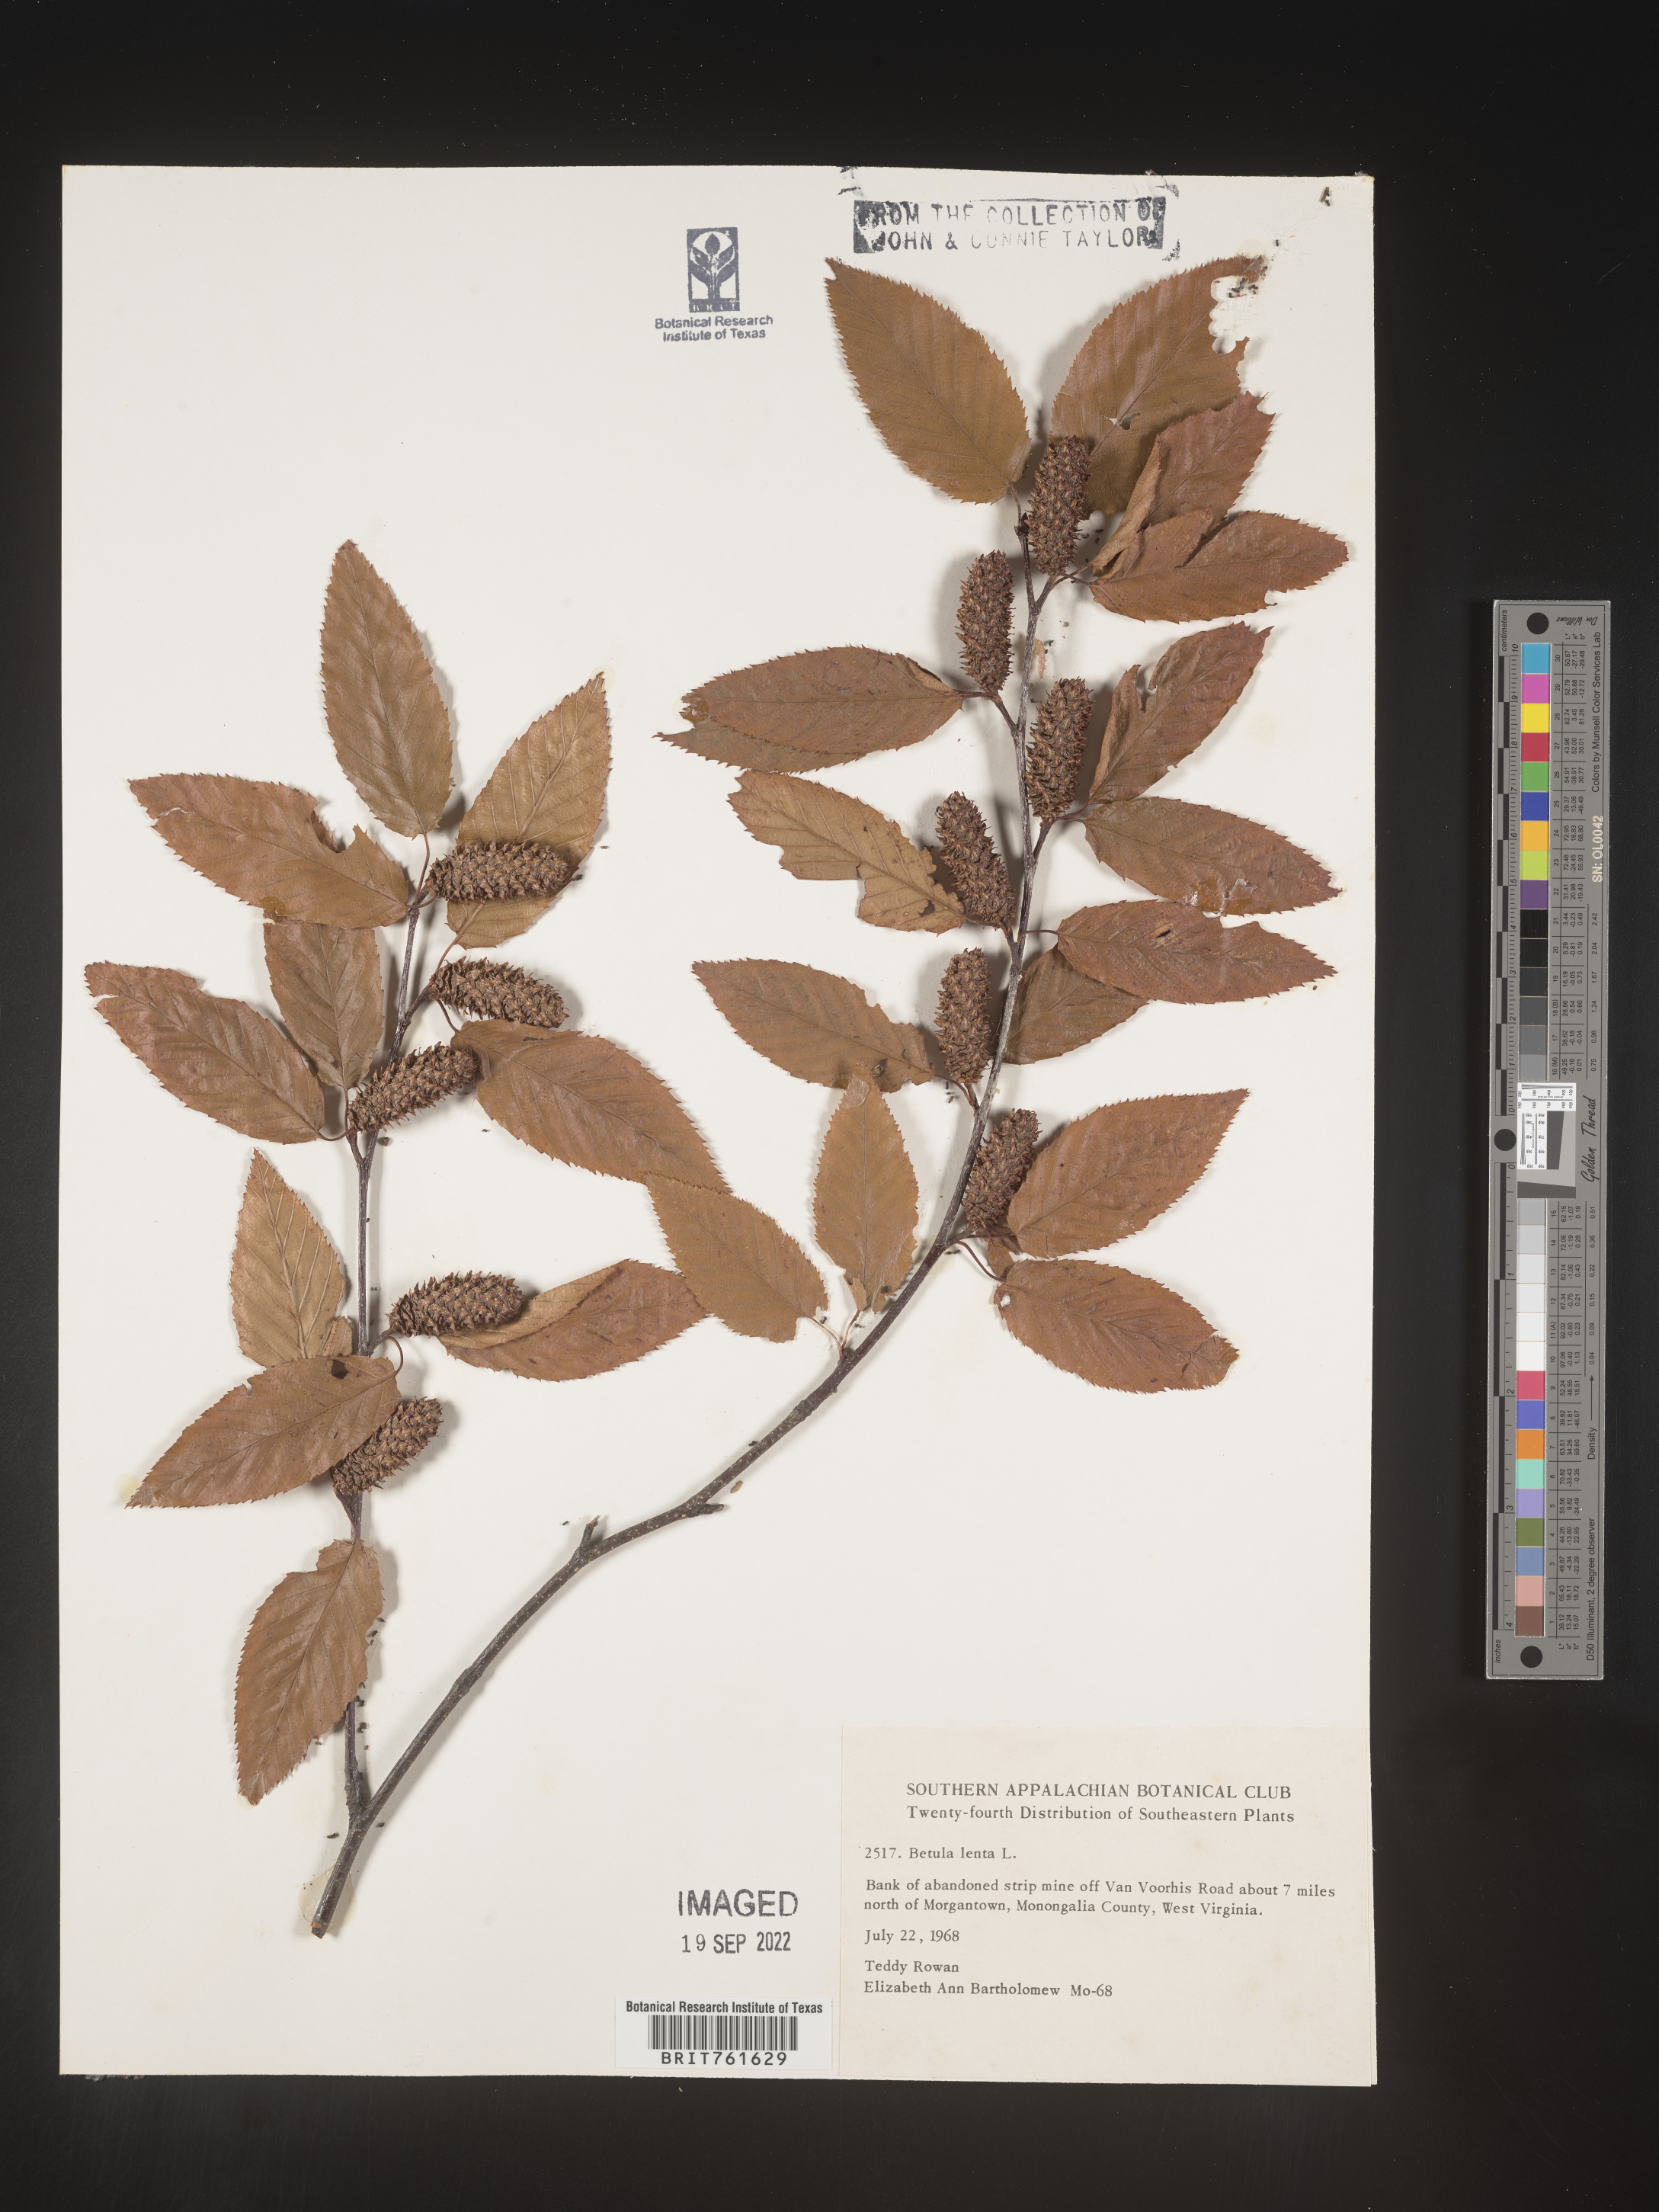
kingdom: Plantae
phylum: Tracheophyta
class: Magnoliopsida
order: Fagales
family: Betulaceae
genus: Betula
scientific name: Betula lenta
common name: Black birch
